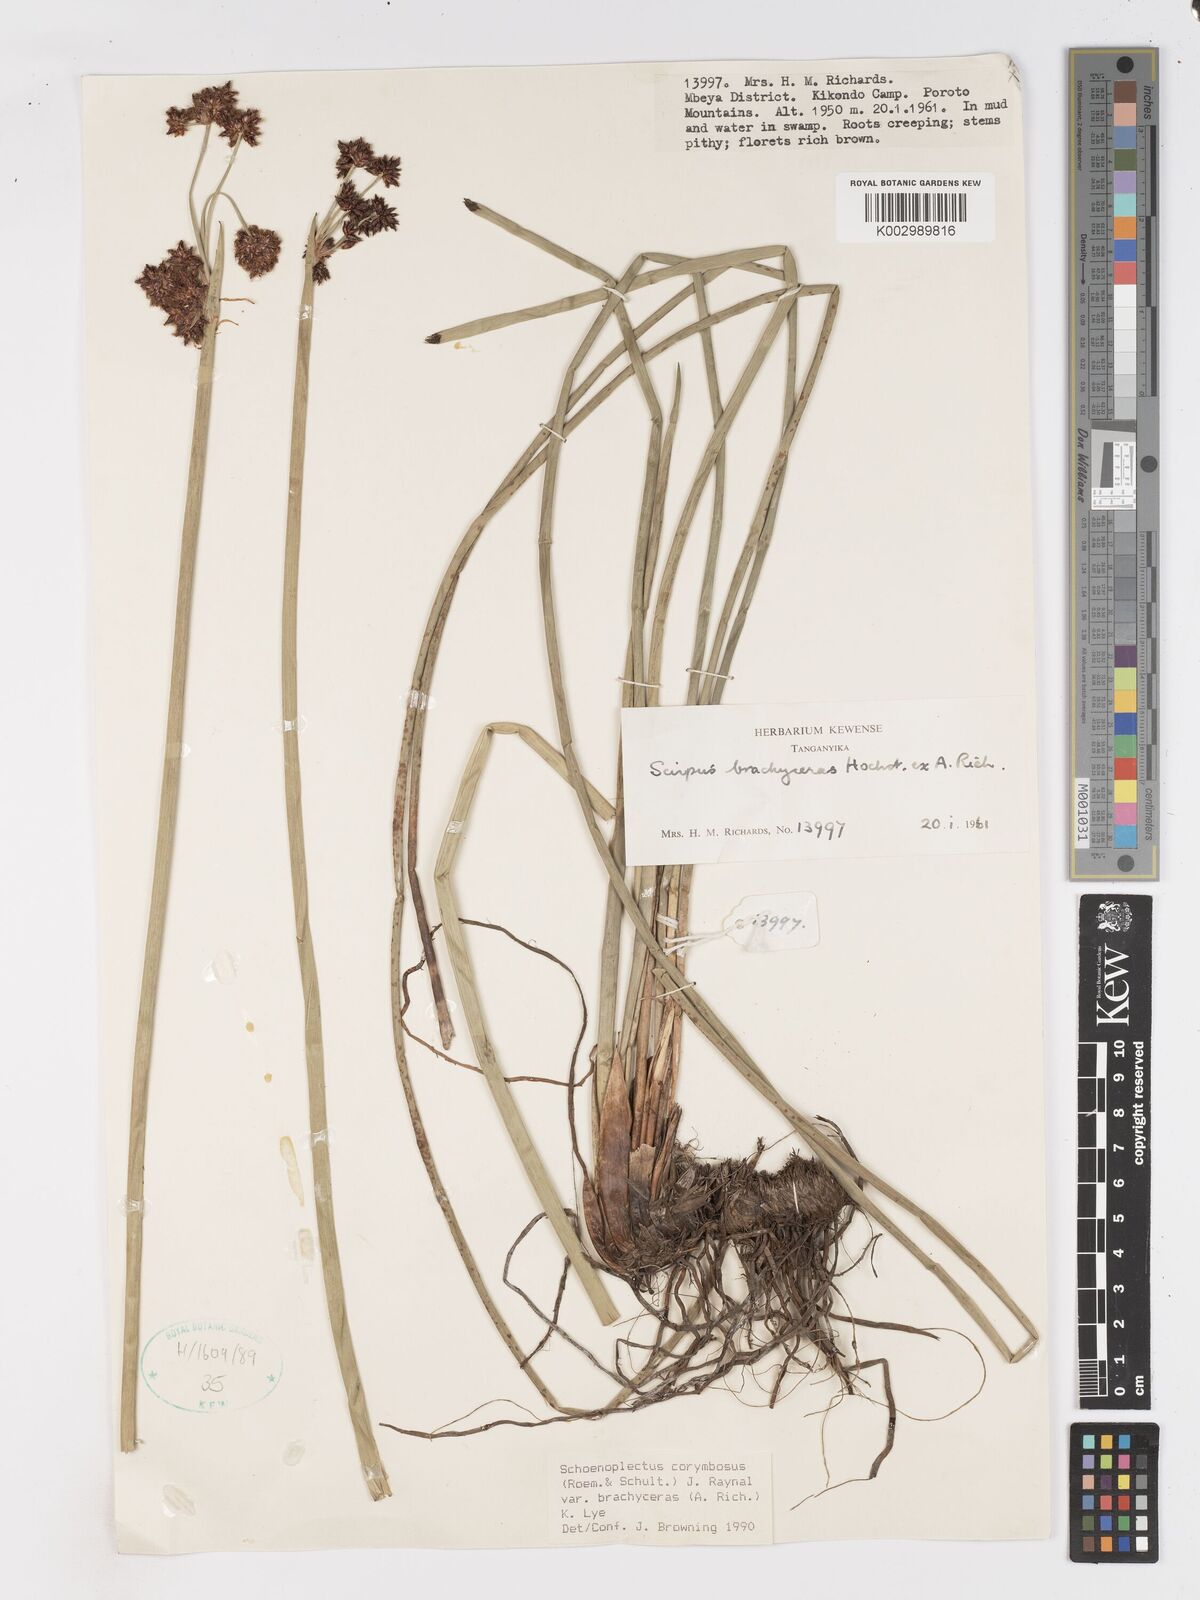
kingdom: Plantae
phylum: Tracheophyta
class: Liliopsida
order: Poales
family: Cyperaceae
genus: Schoenoplectiella
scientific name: Schoenoplectiella brachyceras
